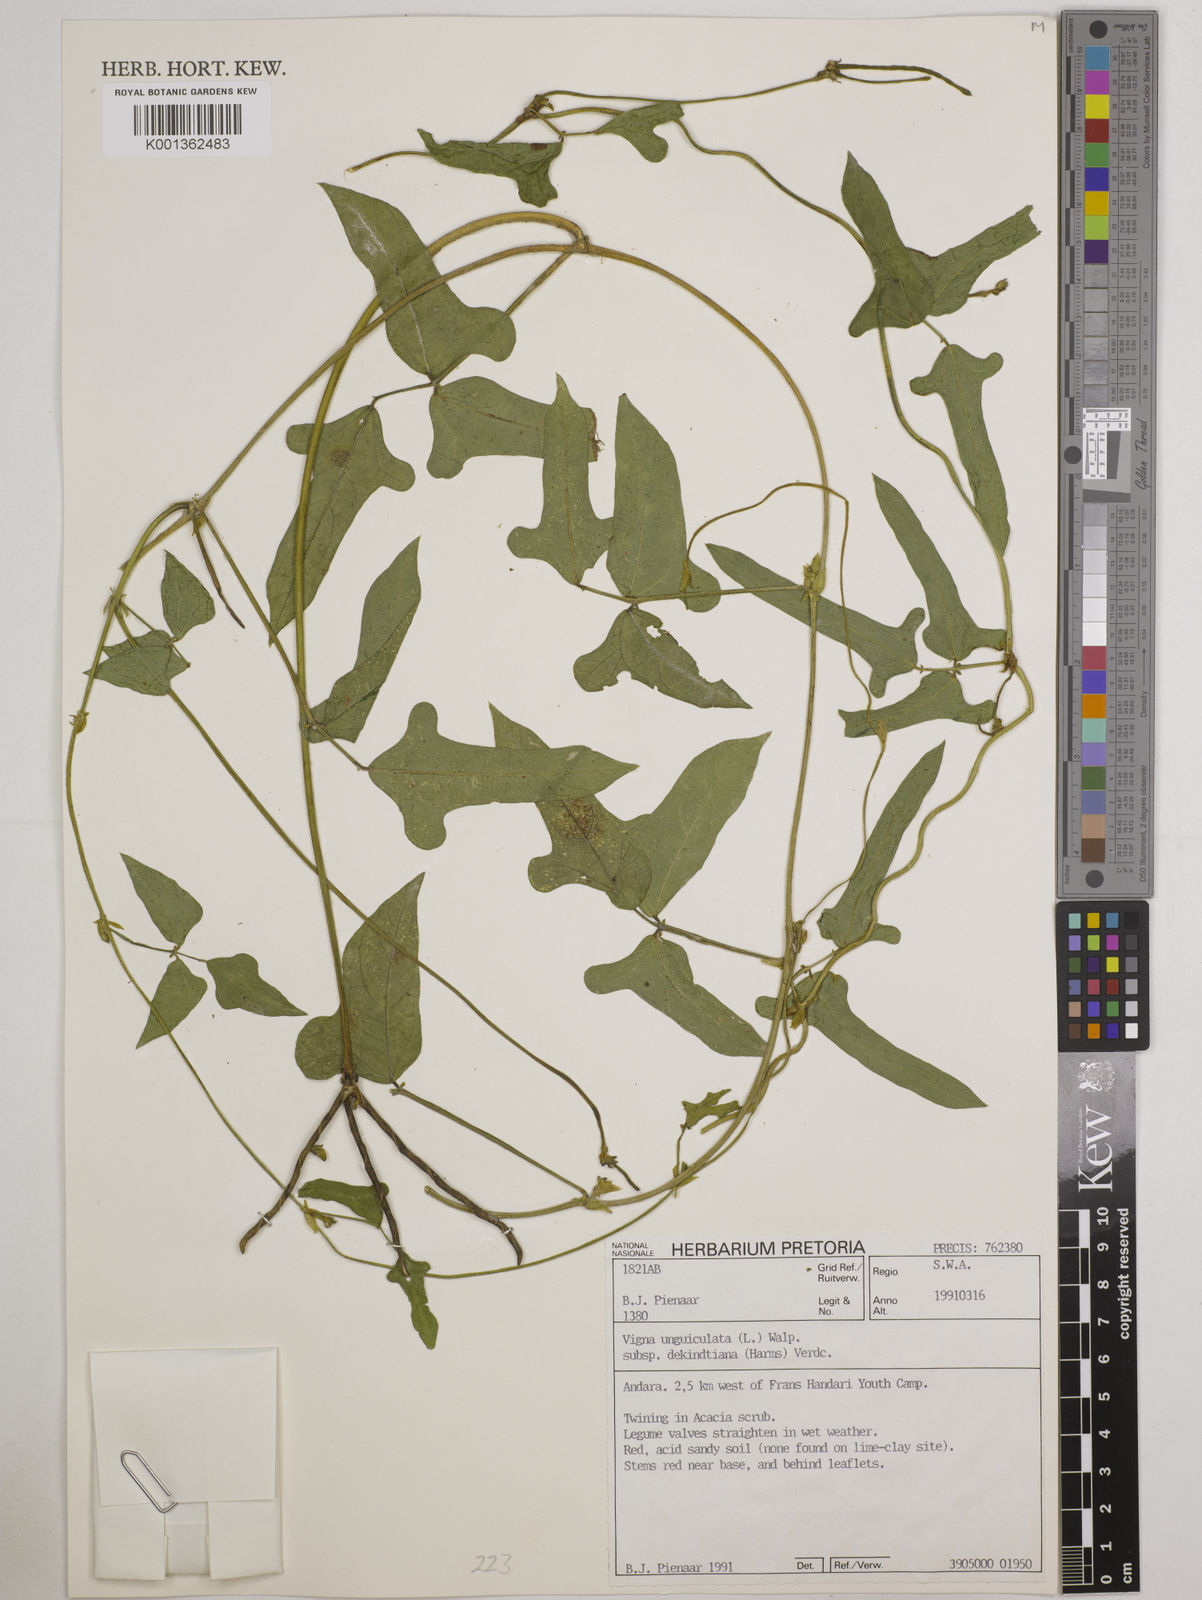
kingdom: Plantae
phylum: Tracheophyta
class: Magnoliopsida
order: Fabales
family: Fabaceae
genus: Vigna
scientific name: Vigna
